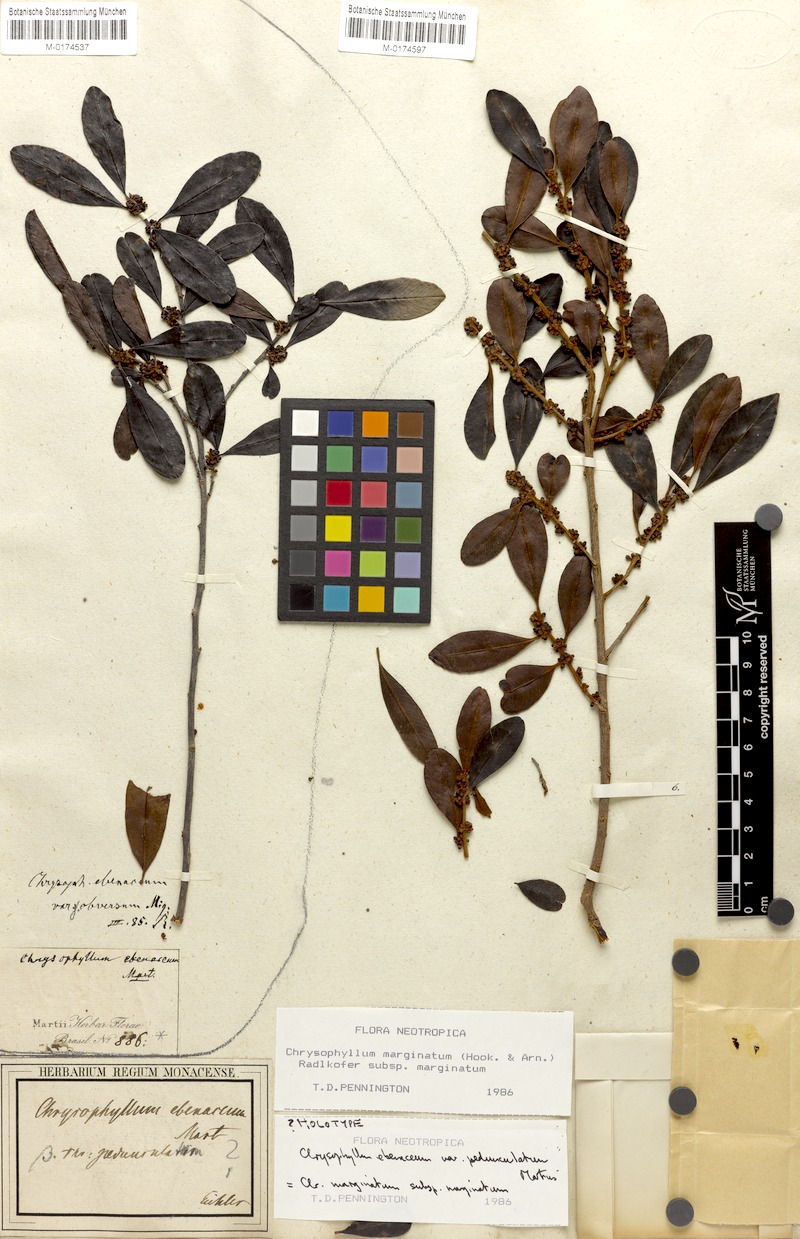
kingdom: Plantae
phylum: Tracheophyta
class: Magnoliopsida
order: Ericales
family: Sapotaceae
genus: Chrysophyllum
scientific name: Chrysophyllum marginatum
